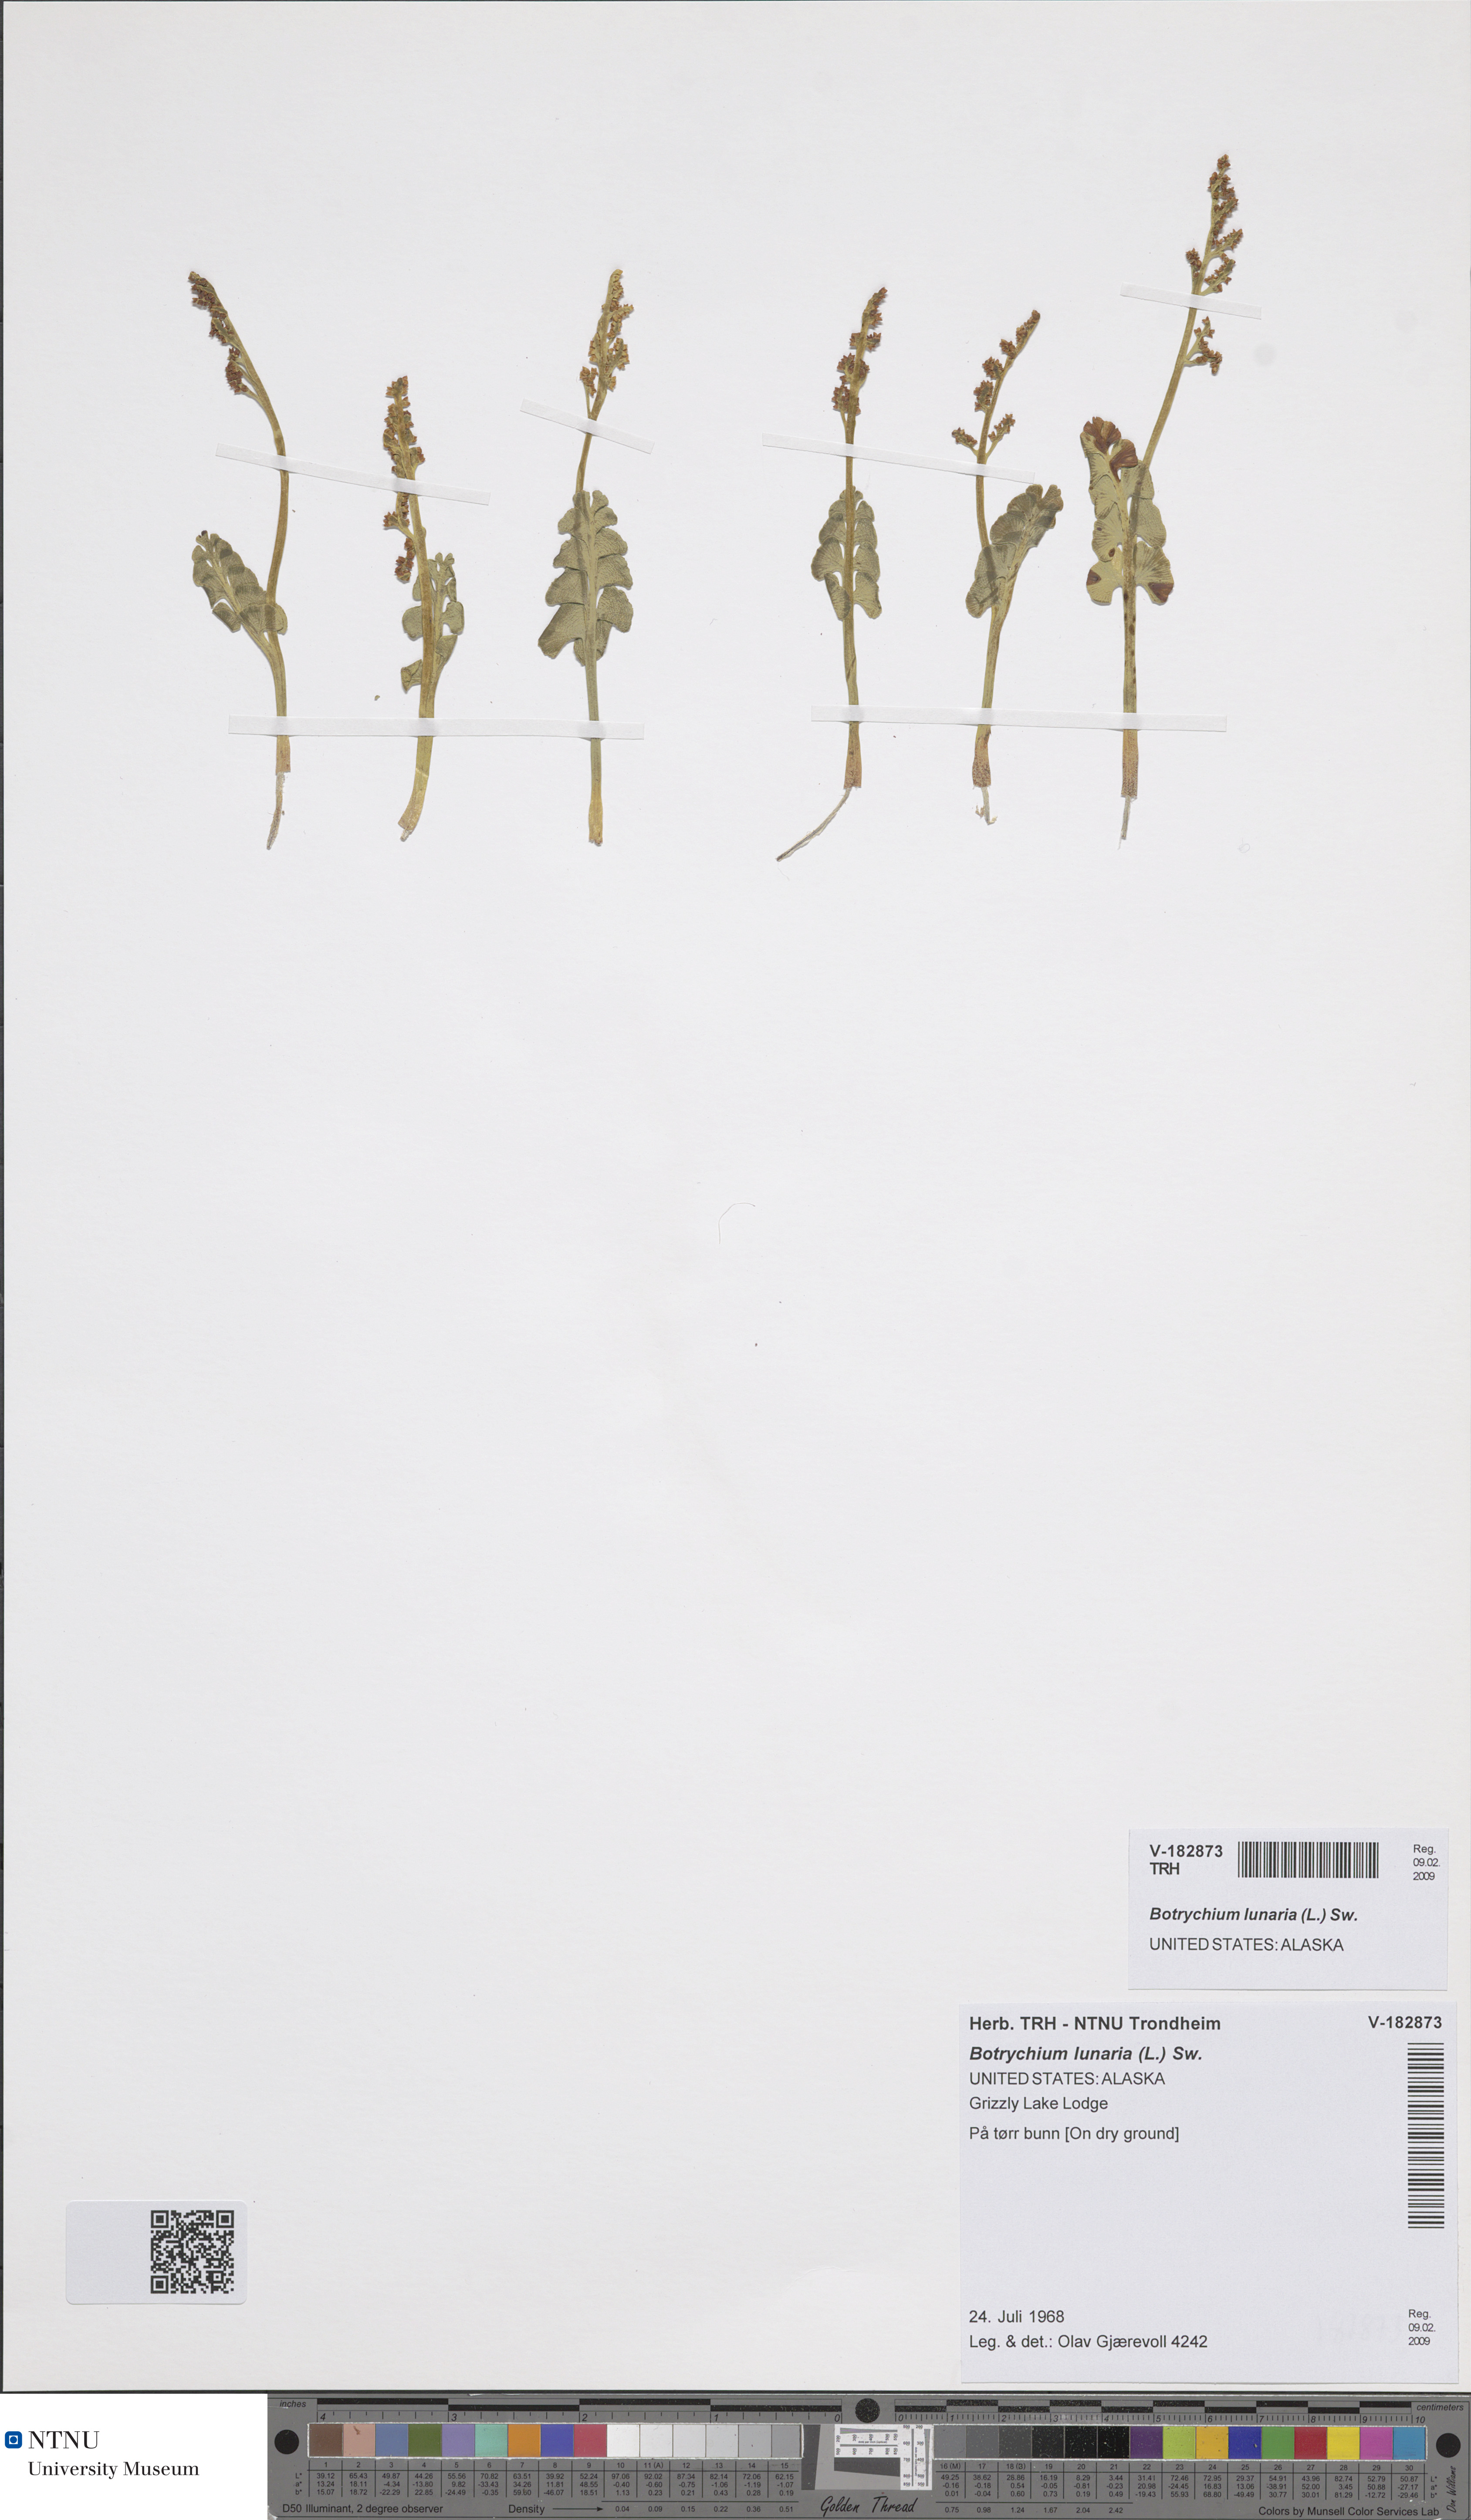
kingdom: Plantae
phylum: Tracheophyta
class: Polypodiopsida
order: Ophioglossales
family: Ophioglossaceae
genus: Botrychium
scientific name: Botrychium lunaria
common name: Moonwort
